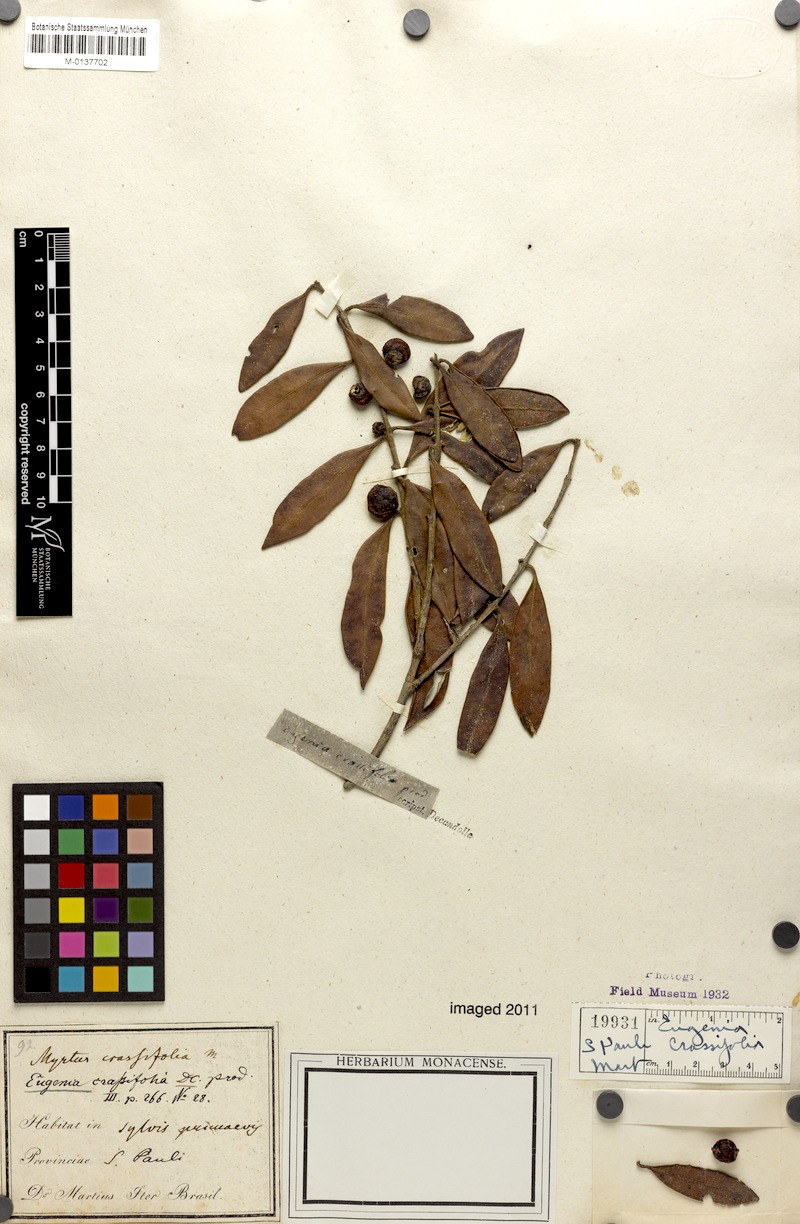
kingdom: Plantae
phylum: Tracheophyta
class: Magnoliopsida
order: Myrtales
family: Myrtaceae
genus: Siphoneugena
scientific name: Siphoneugena crassifolia
